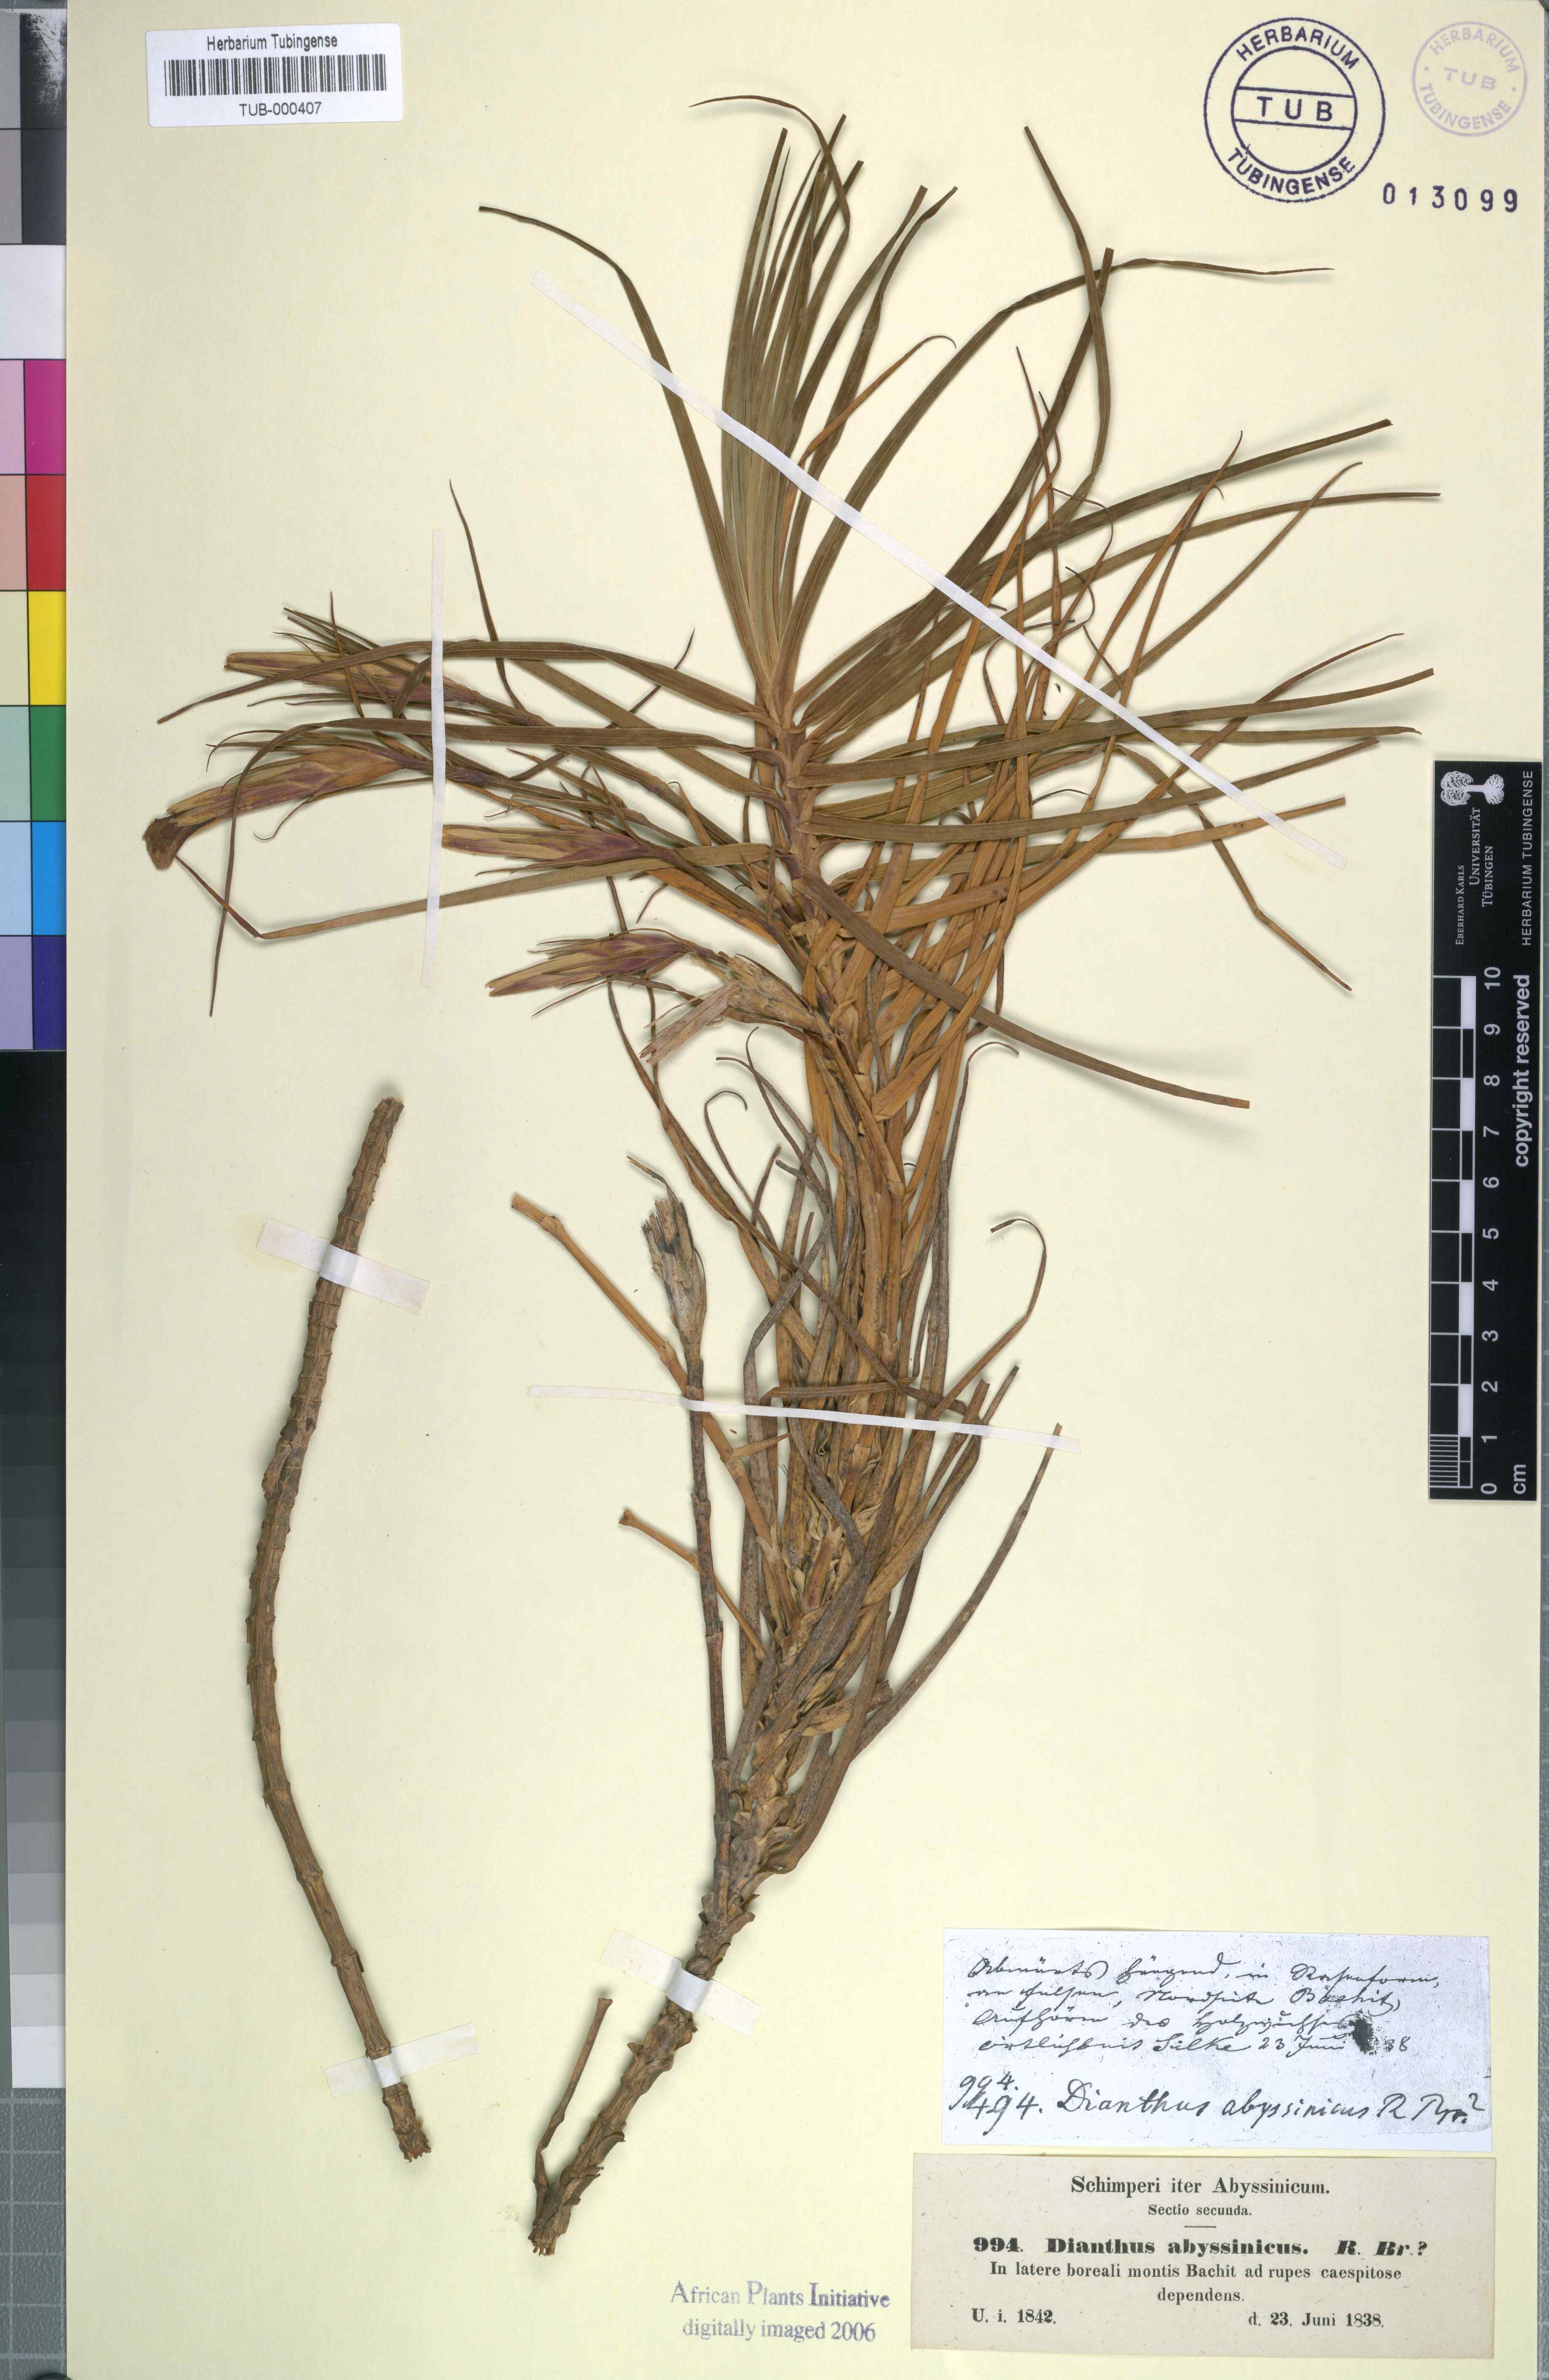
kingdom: Plantae
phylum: Tracheophyta
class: Magnoliopsida
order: Caryophyllales
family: Caryophyllaceae
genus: Dianthus
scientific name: Dianthus leptoloma
